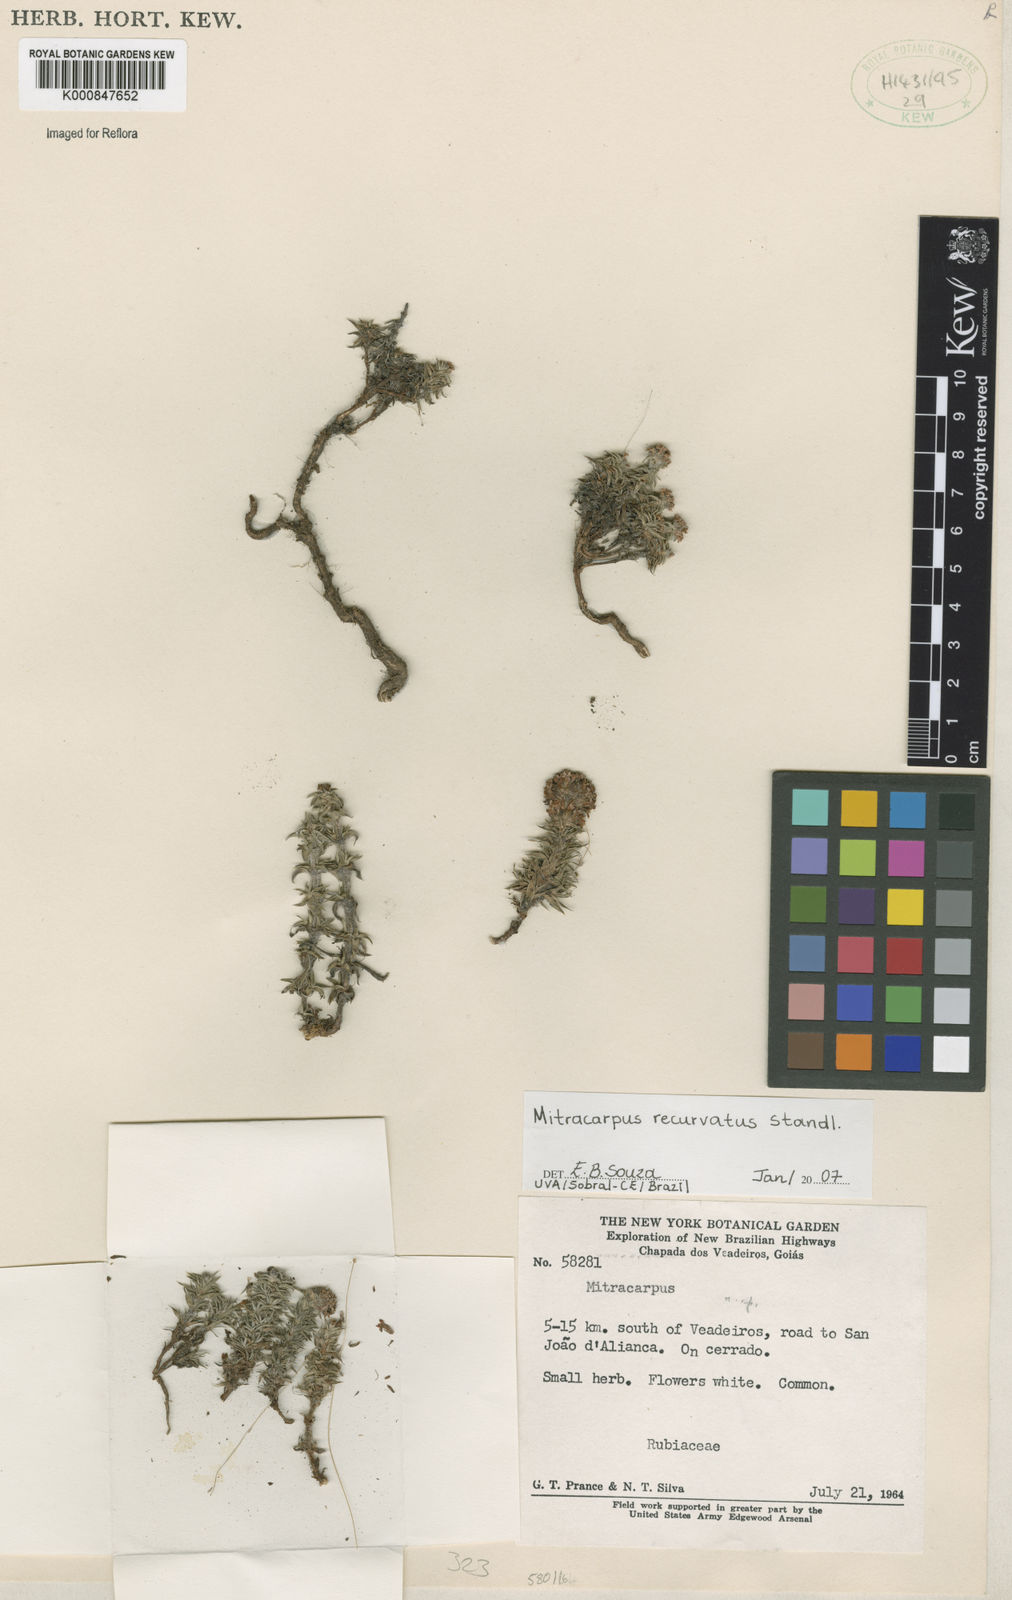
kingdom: Plantae
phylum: Tracheophyta
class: Magnoliopsida
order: Gentianales
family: Rubiaceae
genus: Mitracarpus
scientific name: Mitracarpus recurvatus
